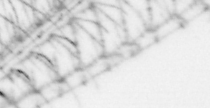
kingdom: Animalia
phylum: Arthropoda
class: Maxillopoda
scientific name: Maxillopoda
